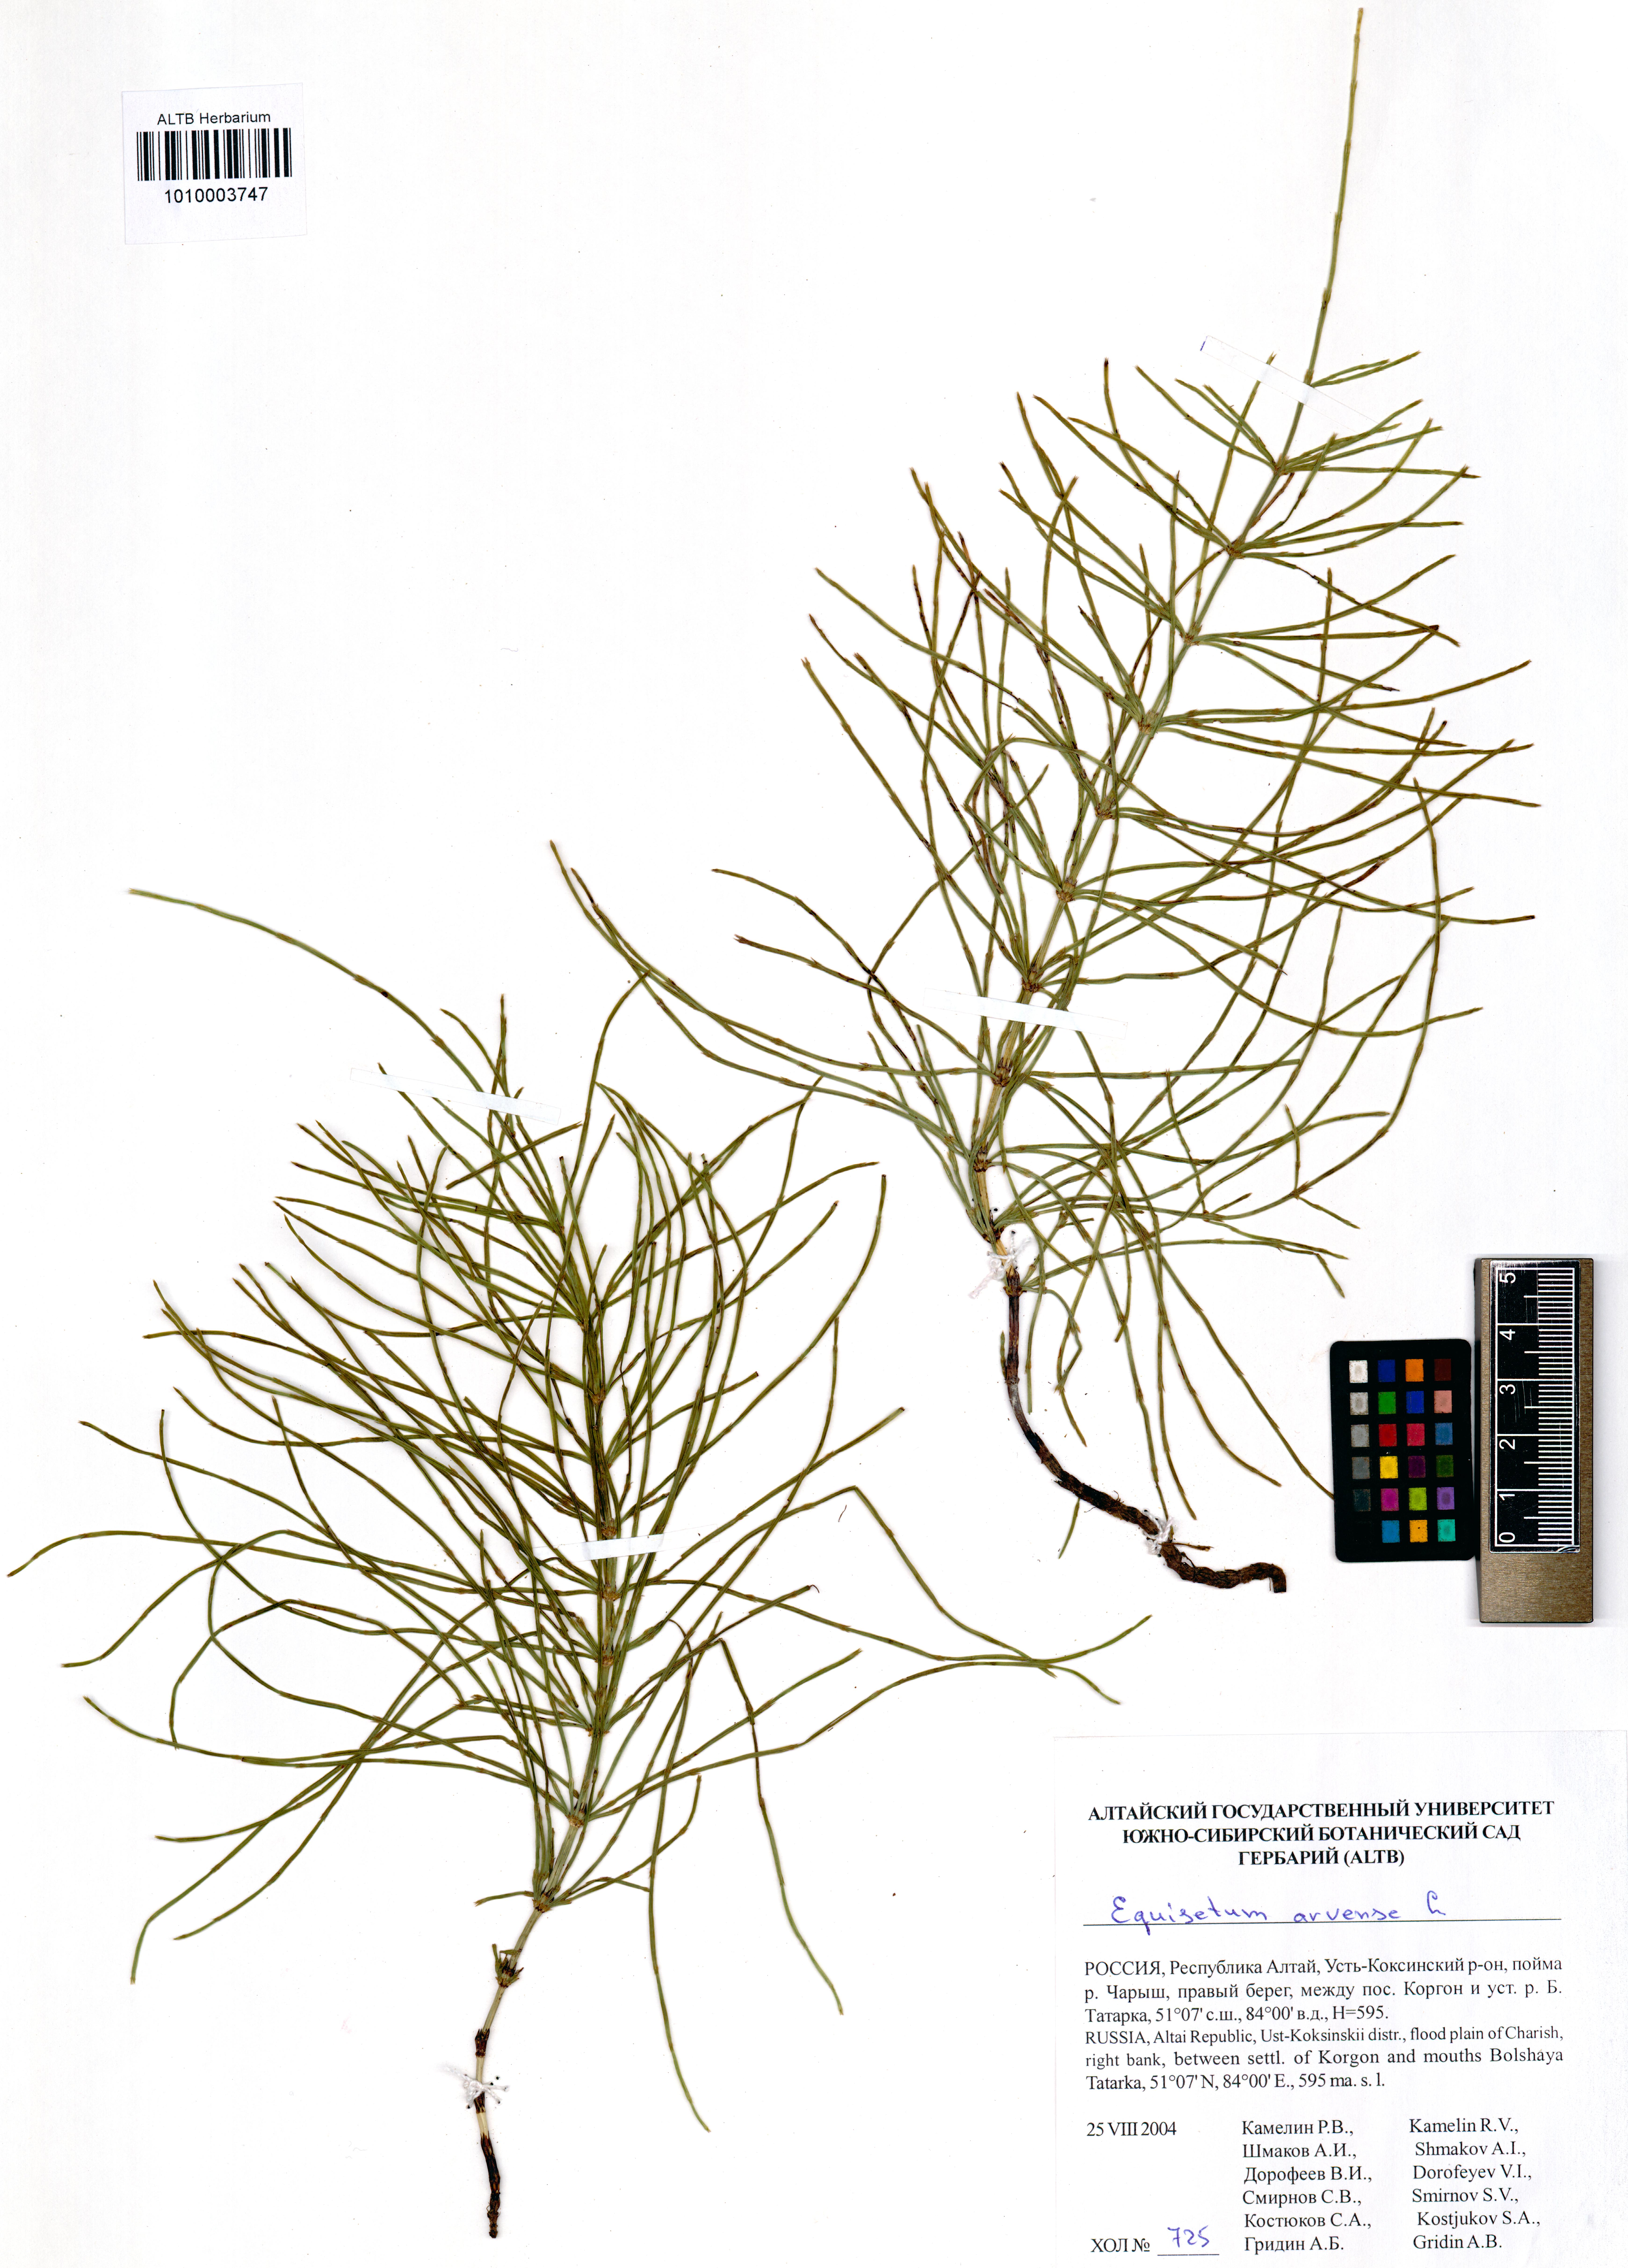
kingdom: Plantae
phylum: Tracheophyta
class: Polypodiopsida
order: Equisetales
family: Equisetaceae
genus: Equisetum
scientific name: Equisetum arvense
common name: Field horsetail
